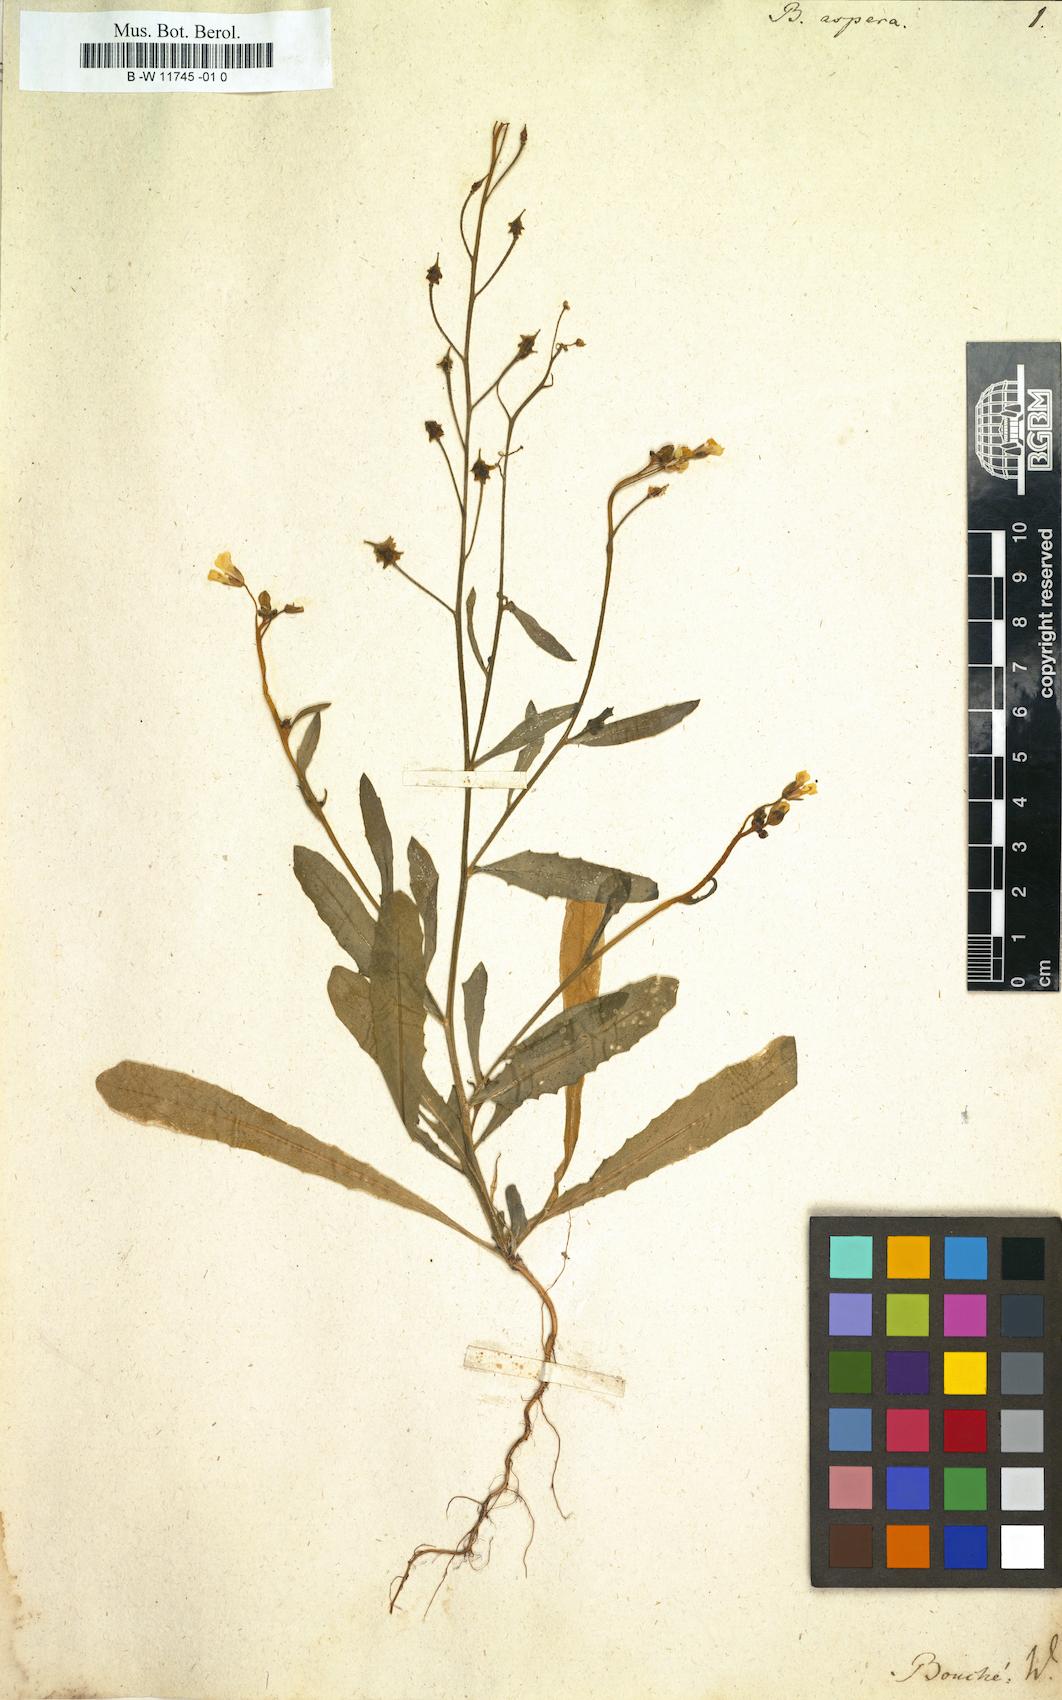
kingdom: Plantae
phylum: Tracheophyta
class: Magnoliopsida
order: Brassicales
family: Brassicaceae
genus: Bunias
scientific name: Bunias erucago
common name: Southern warty-cabbage
